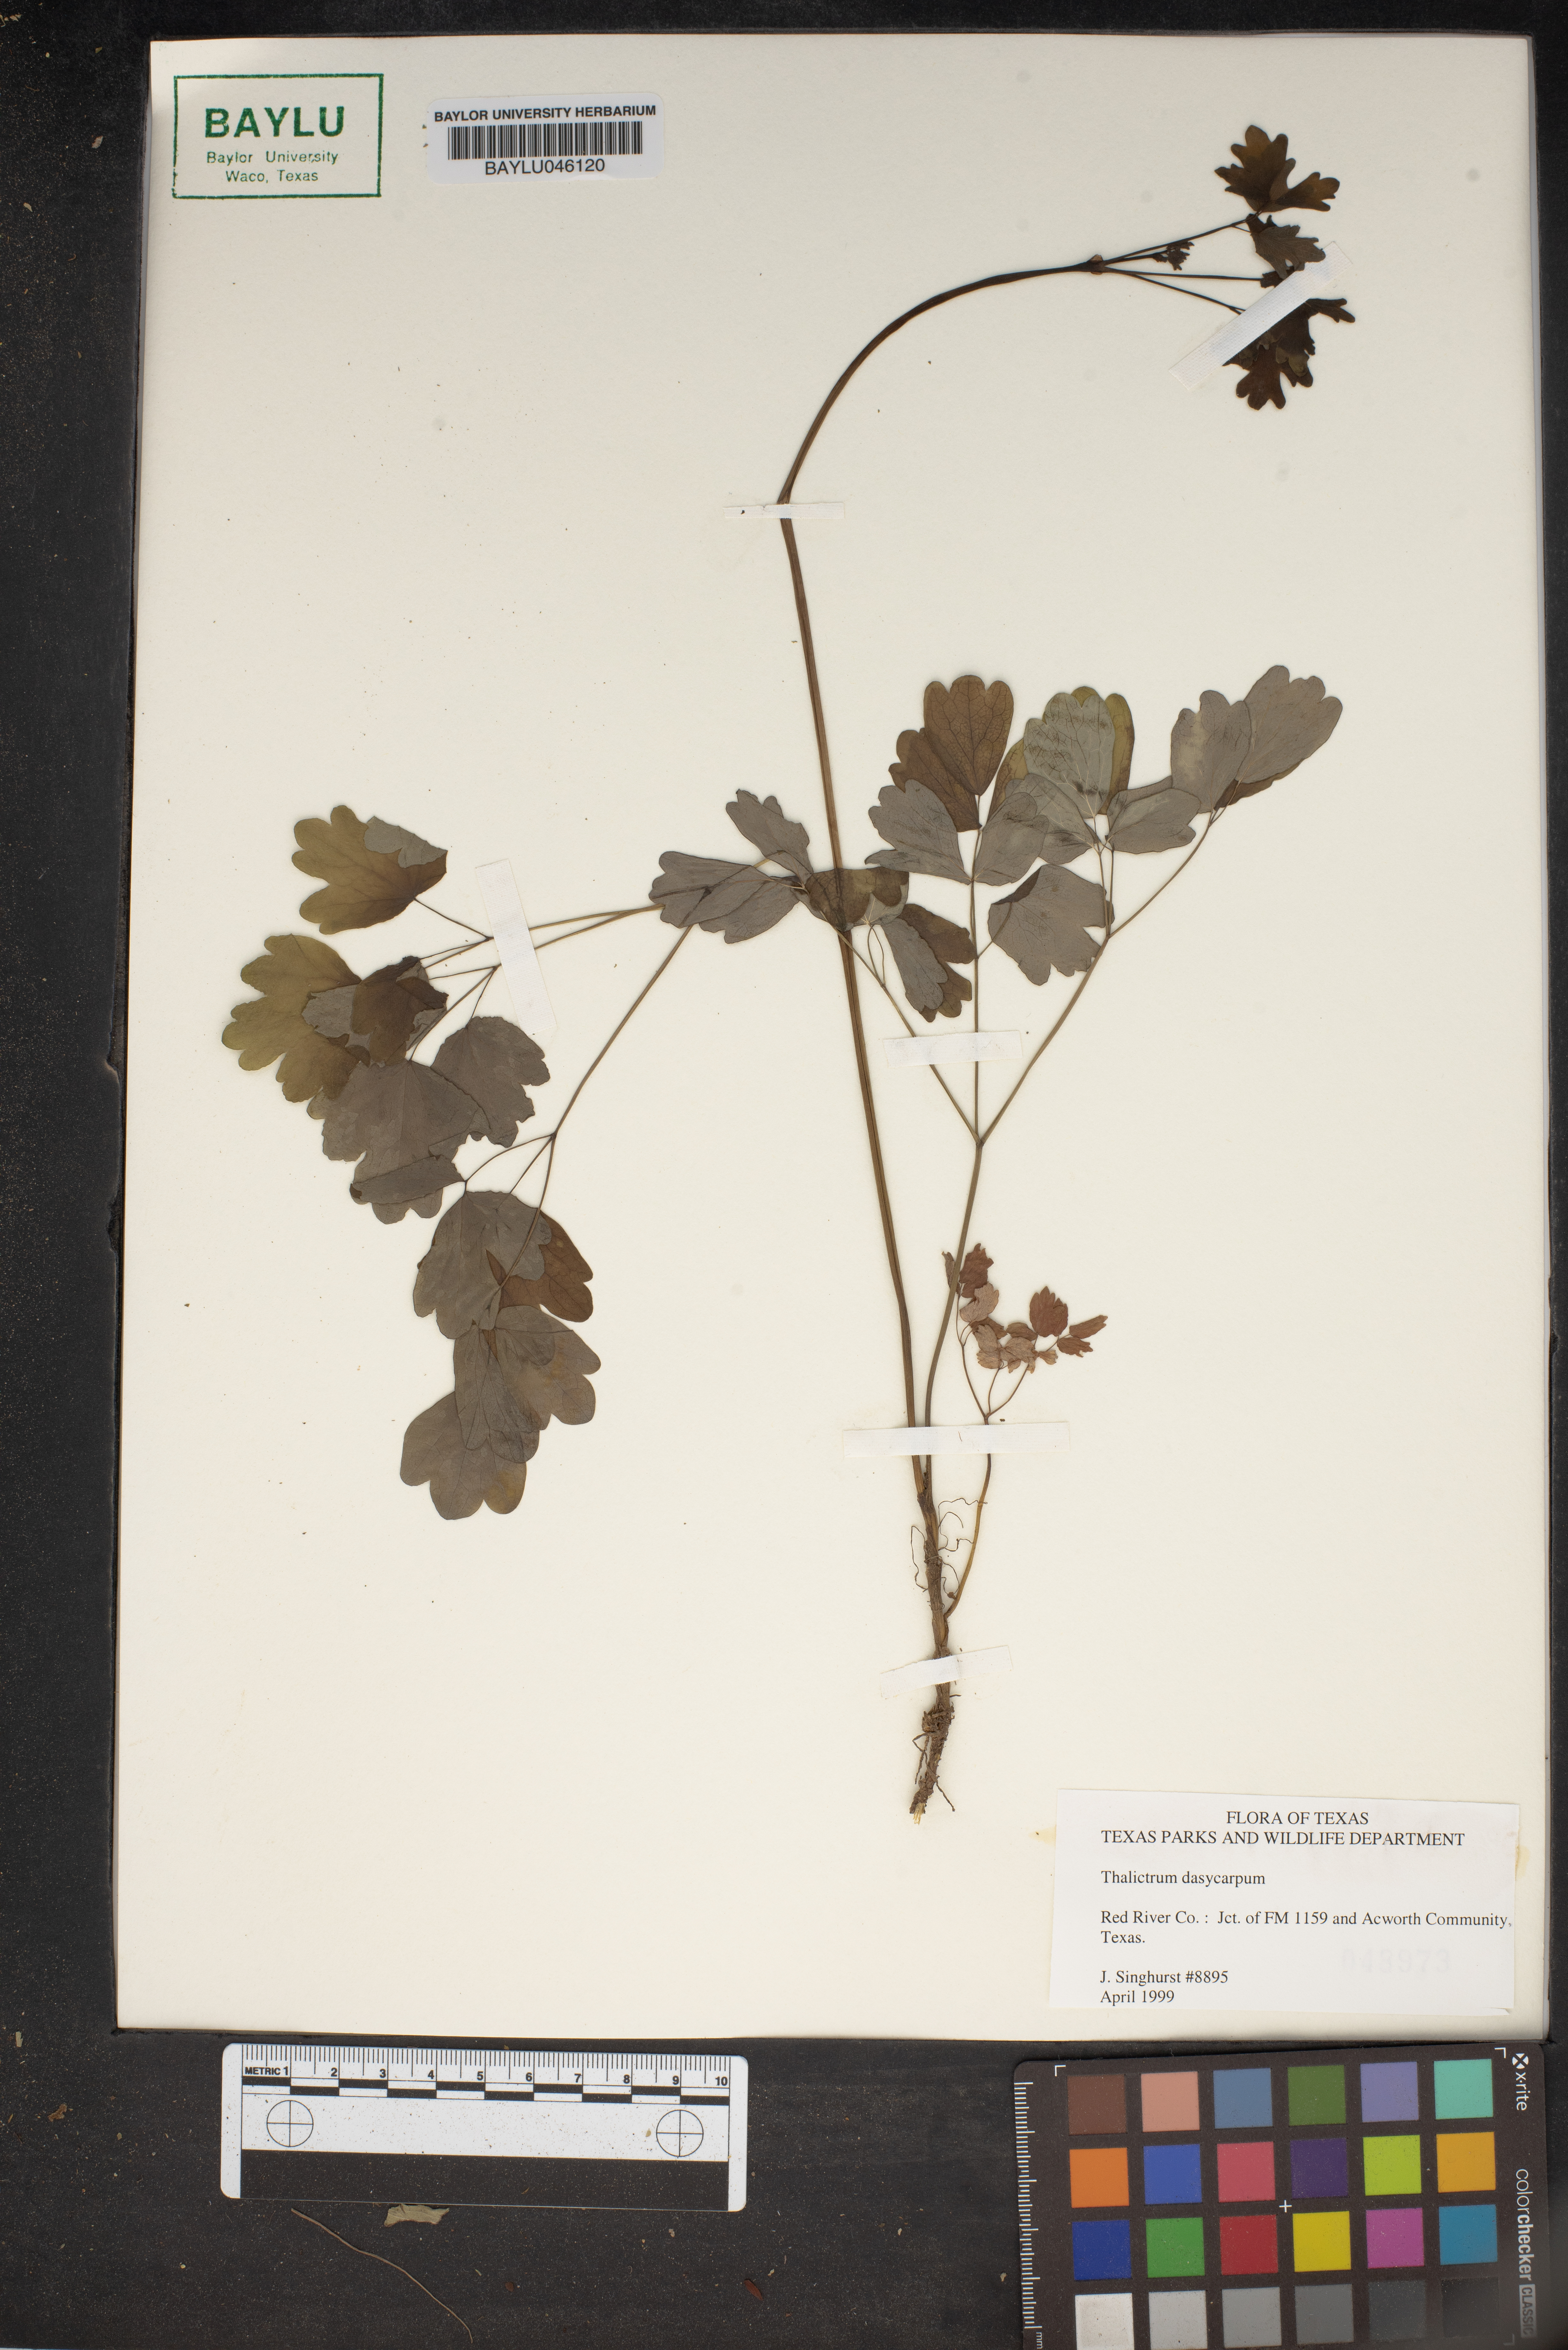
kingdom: Plantae
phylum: Tracheophyta
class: Magnoliopsida
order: Ranunculales
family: Ranunculaceae
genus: Thalictrum
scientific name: Thalictrum dasycarpum
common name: Purple meadow-rue
